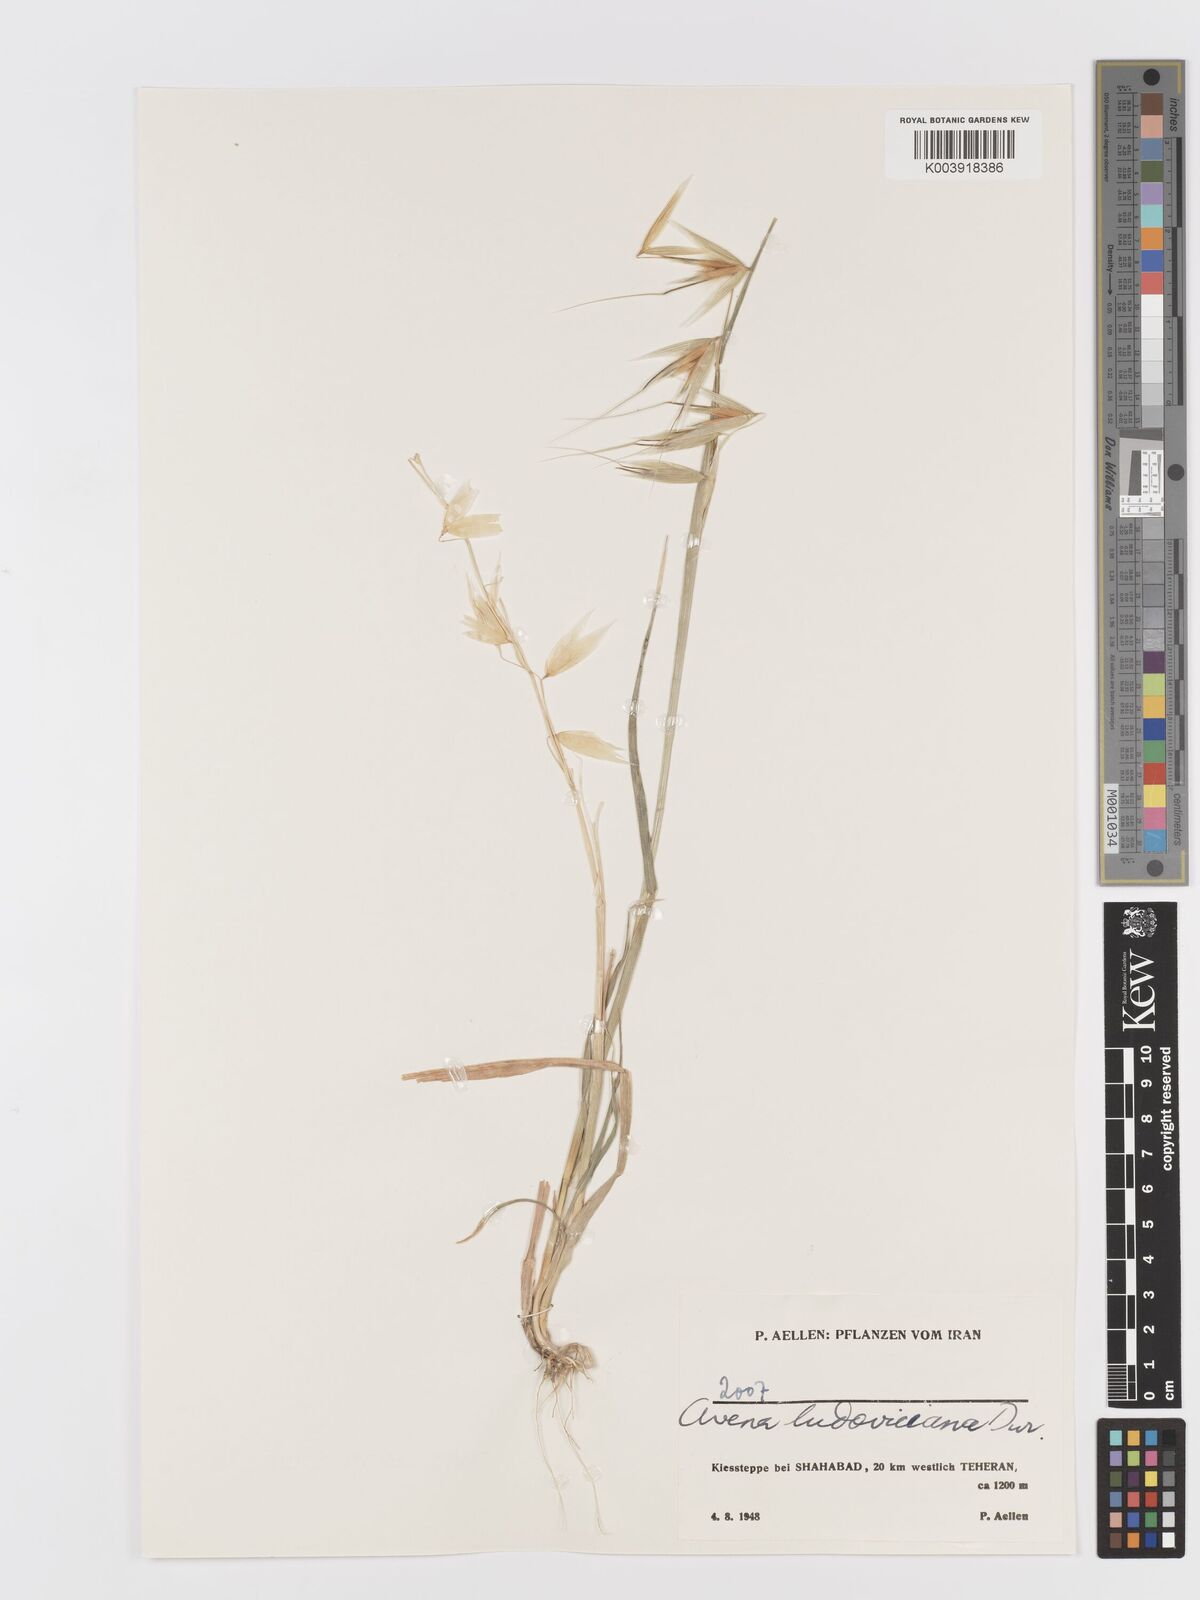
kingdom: Plantae
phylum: Tracheophyta
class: Liliopsida
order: Poales
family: Poaceae
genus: Avena
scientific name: Avena sterilis
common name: Animated oat
